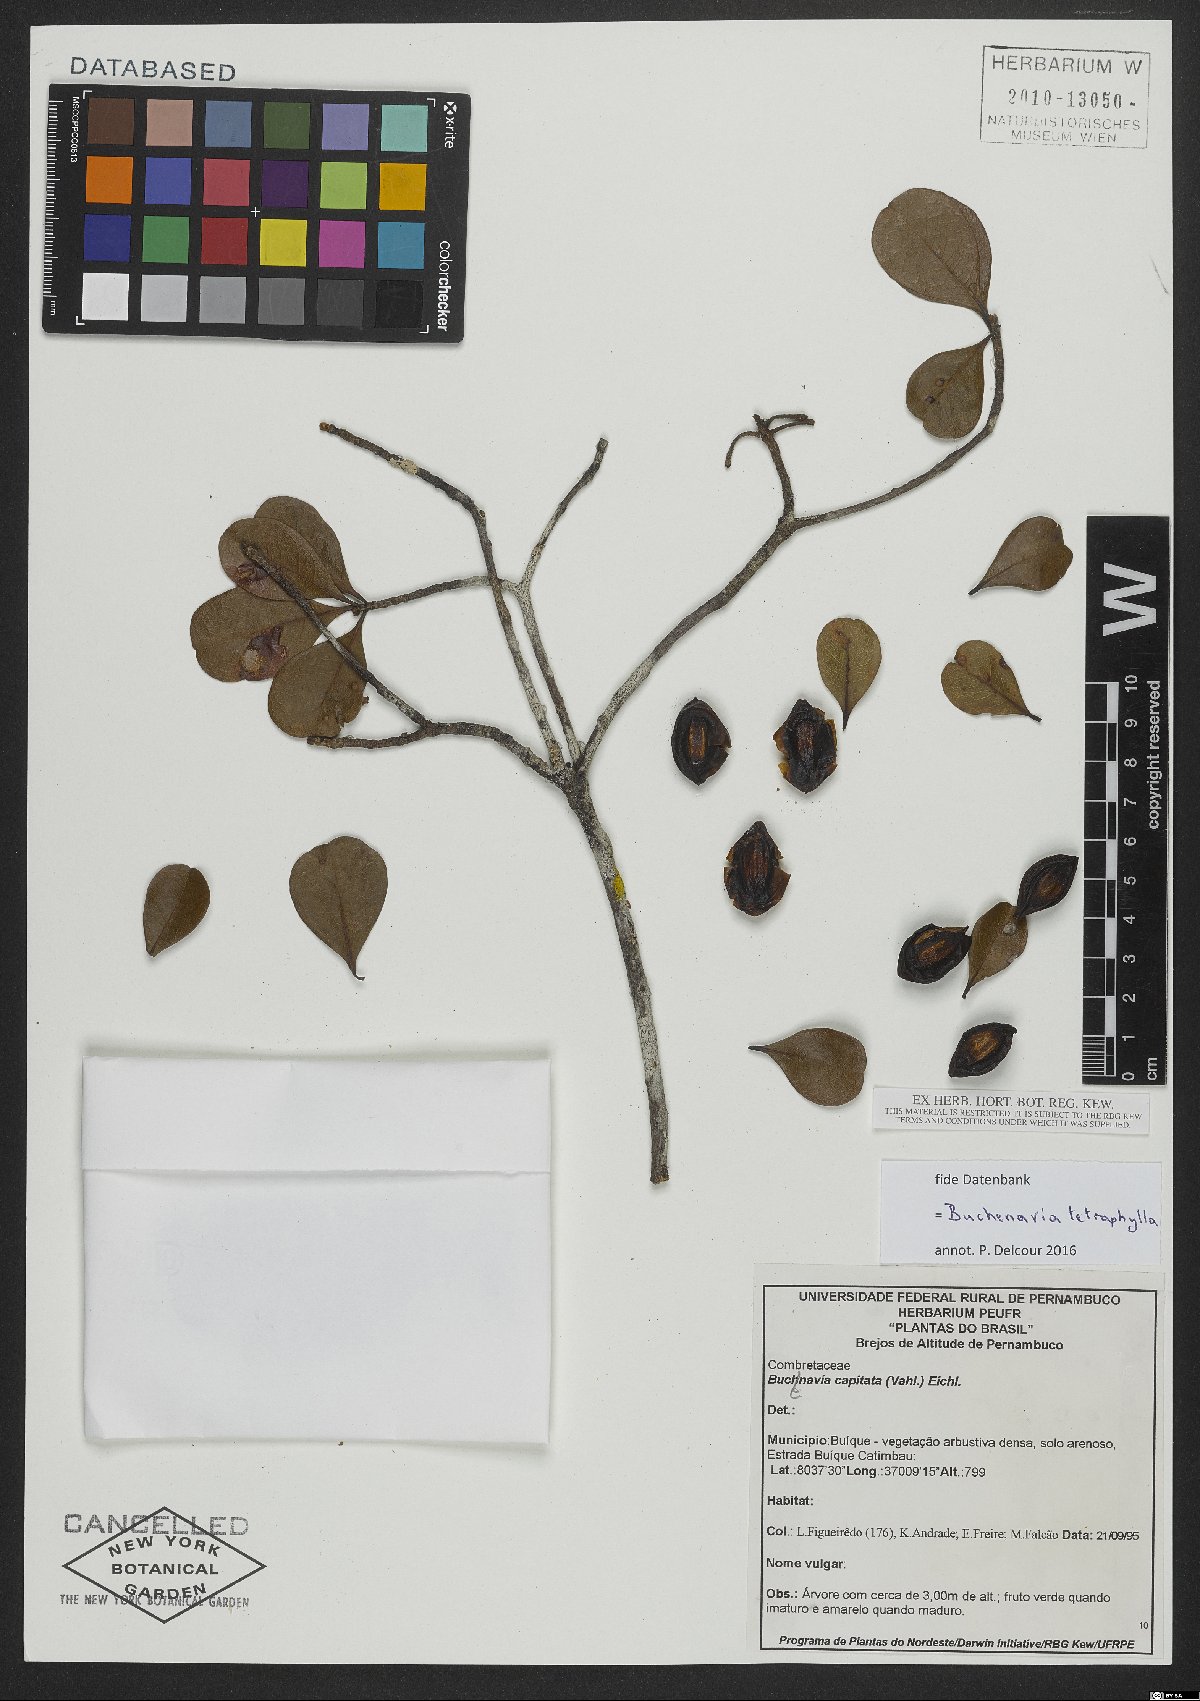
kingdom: Plantae
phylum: Tracheophyta
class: Magnoliopsida
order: Myrtales
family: Combretaceae
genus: Terminalia
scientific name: Terminalia tetraphylla
